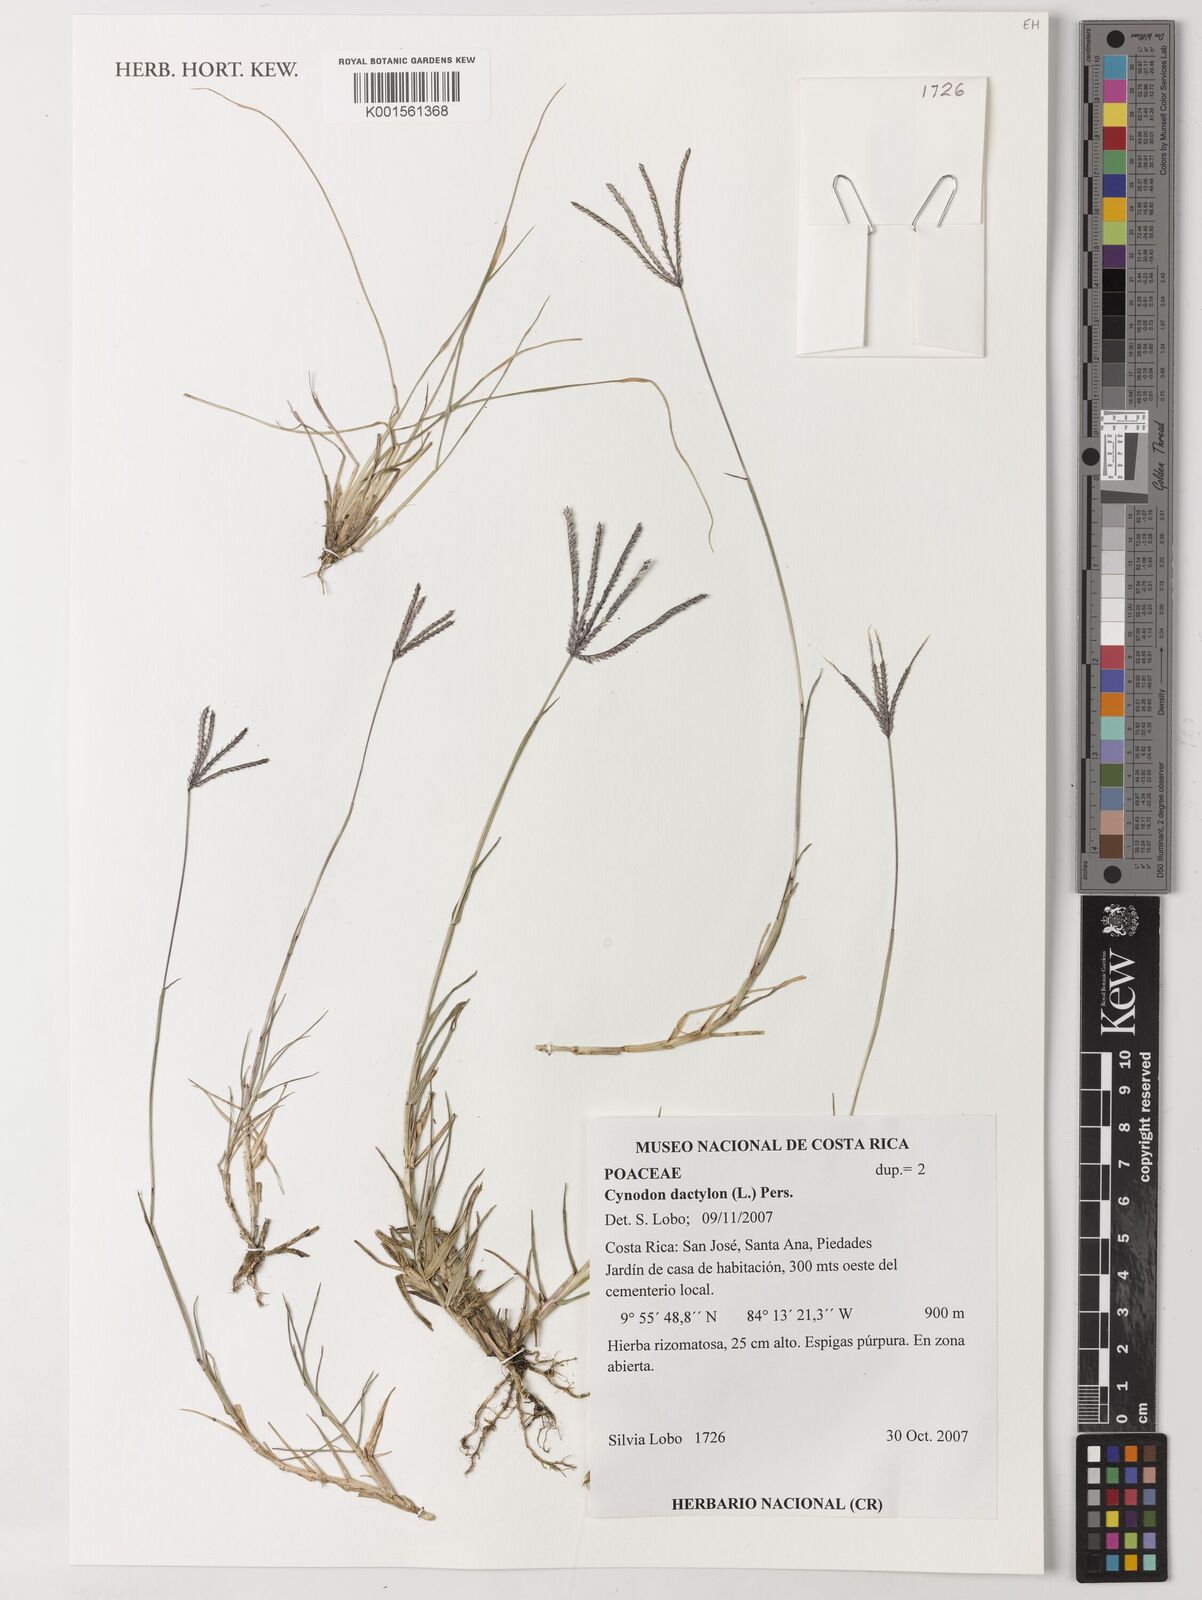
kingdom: Plantae
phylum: Tracheophyta
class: Liliopsida
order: Poales
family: Poaceae
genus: Cynodon
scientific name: Cynodon dactylon
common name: Bermuda grass
